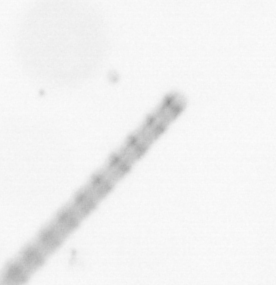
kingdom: Chromista
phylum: Ochrophyta
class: Bacillariophyceae
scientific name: Bacillariophyceae
